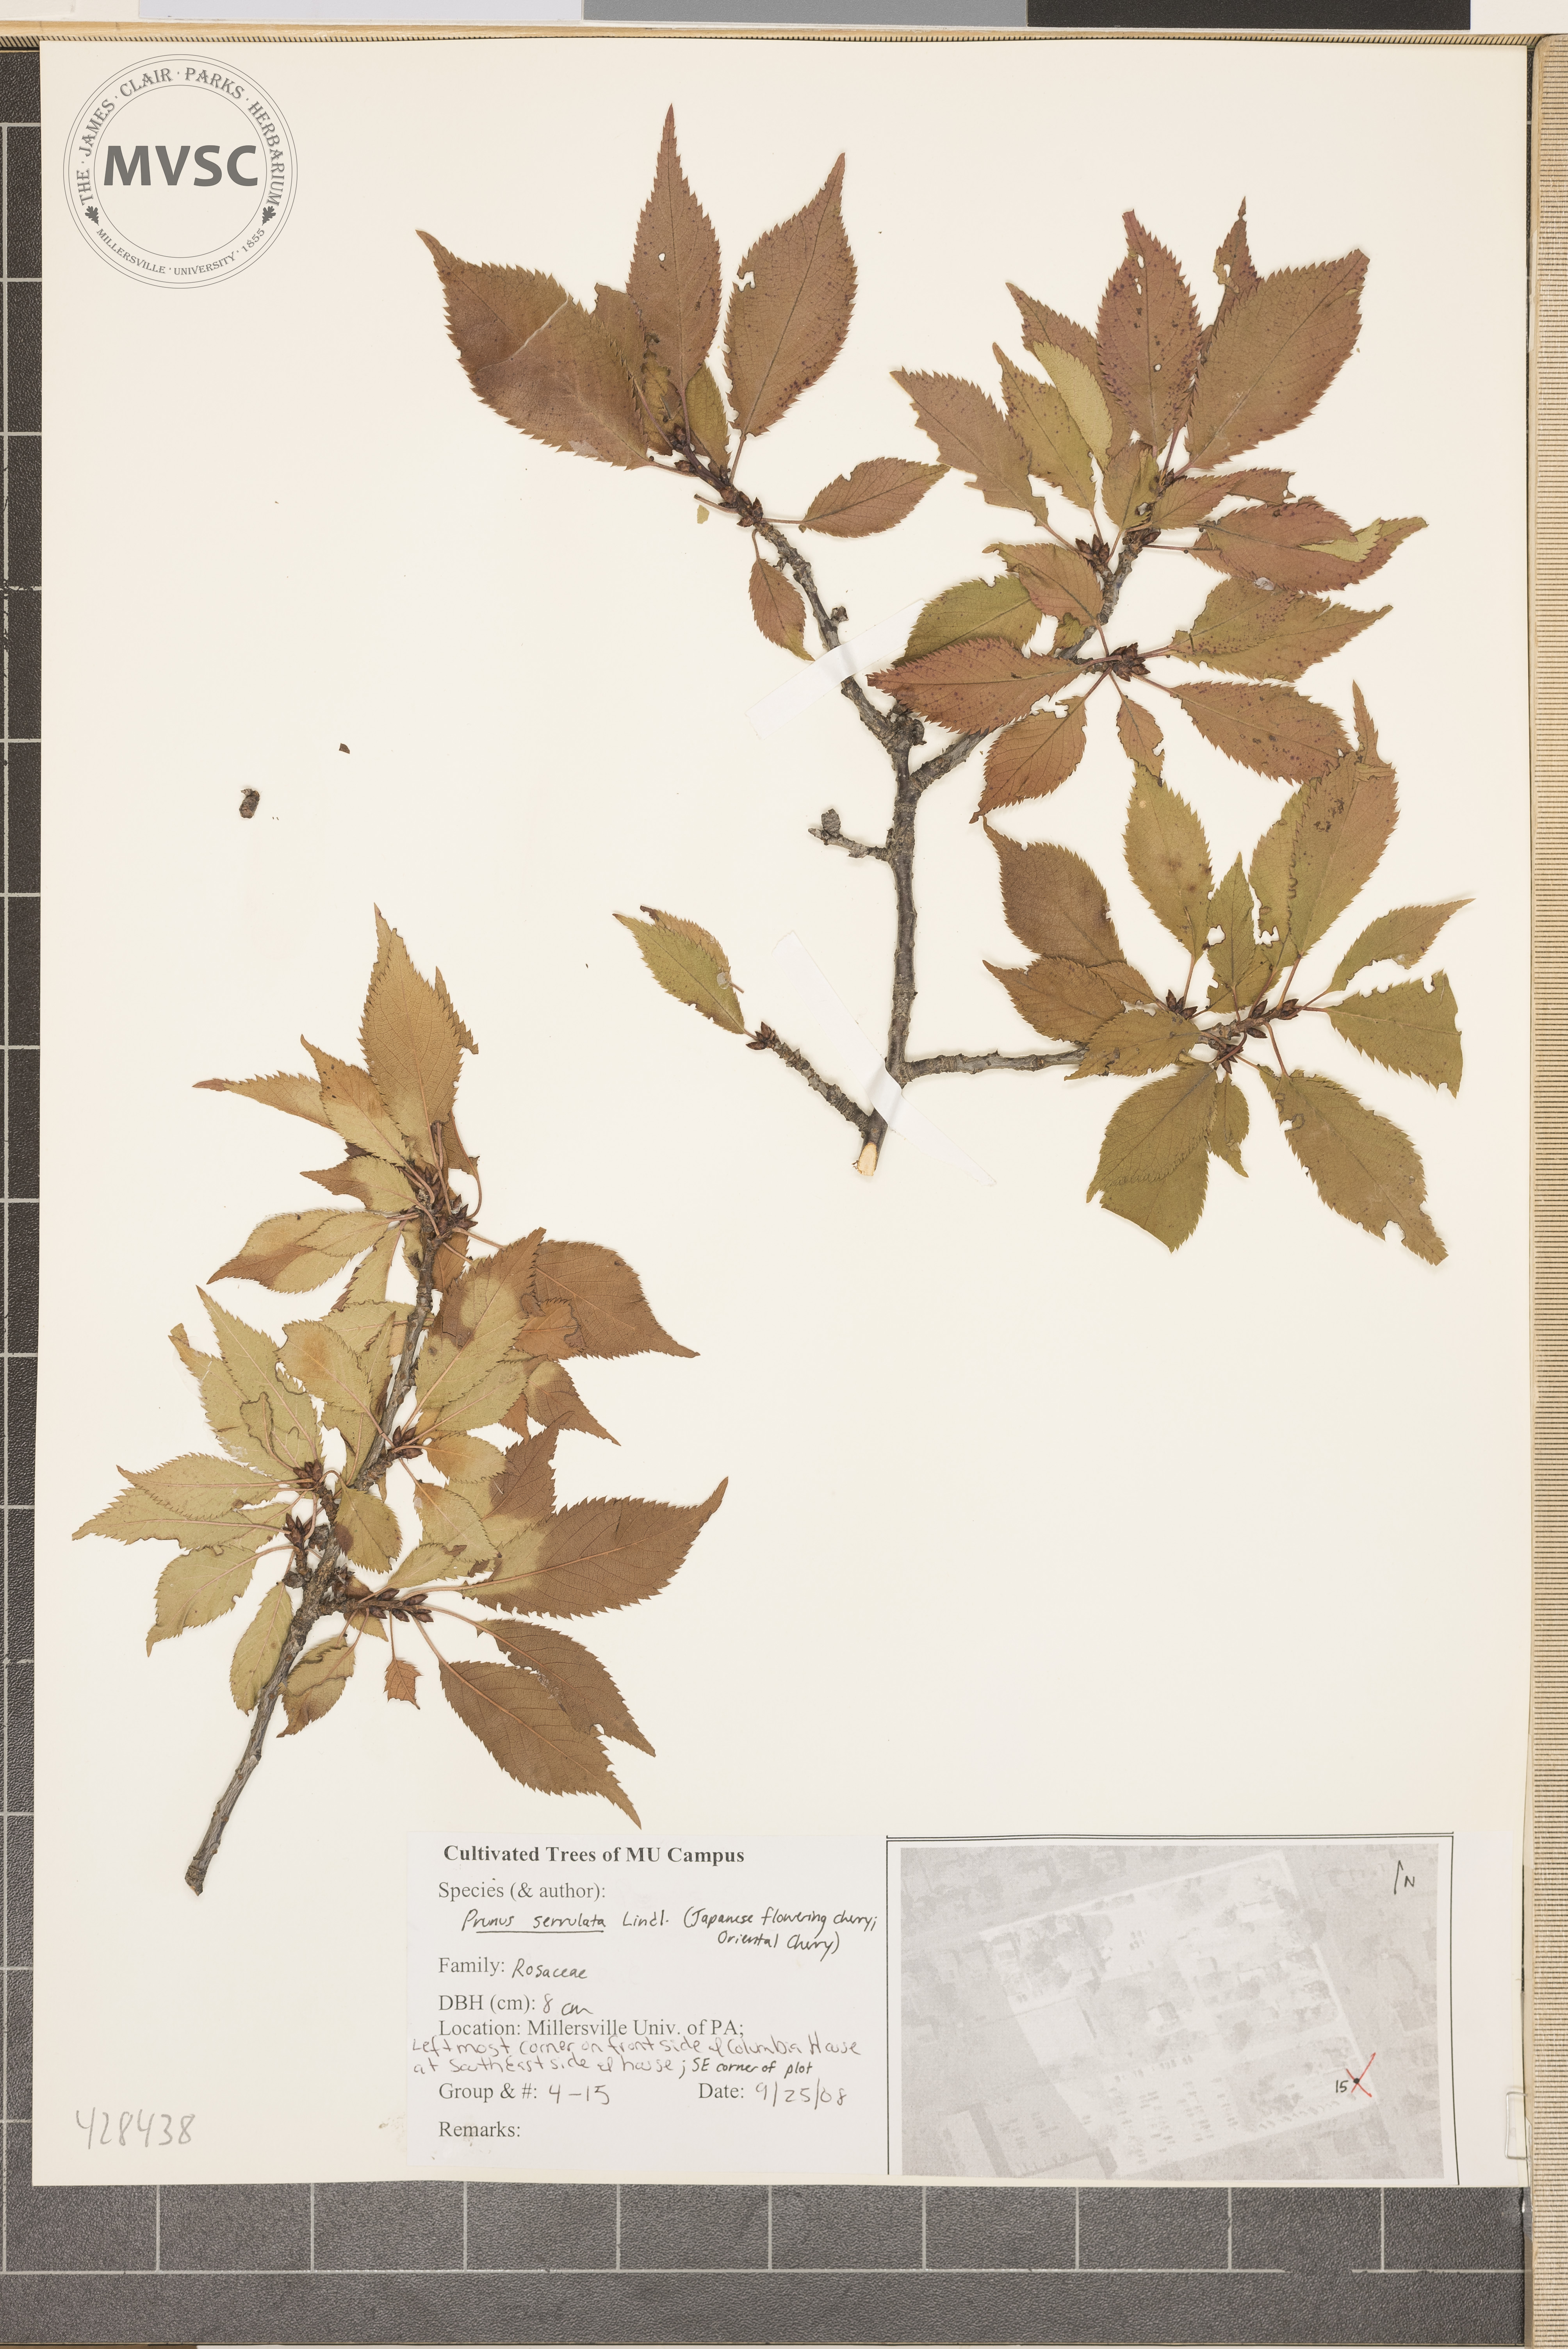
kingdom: Plantae
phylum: Tracheophyta
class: Magnoliopsida
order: Rosales
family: Rosaceae
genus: Prunus
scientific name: Prunus serrulata
